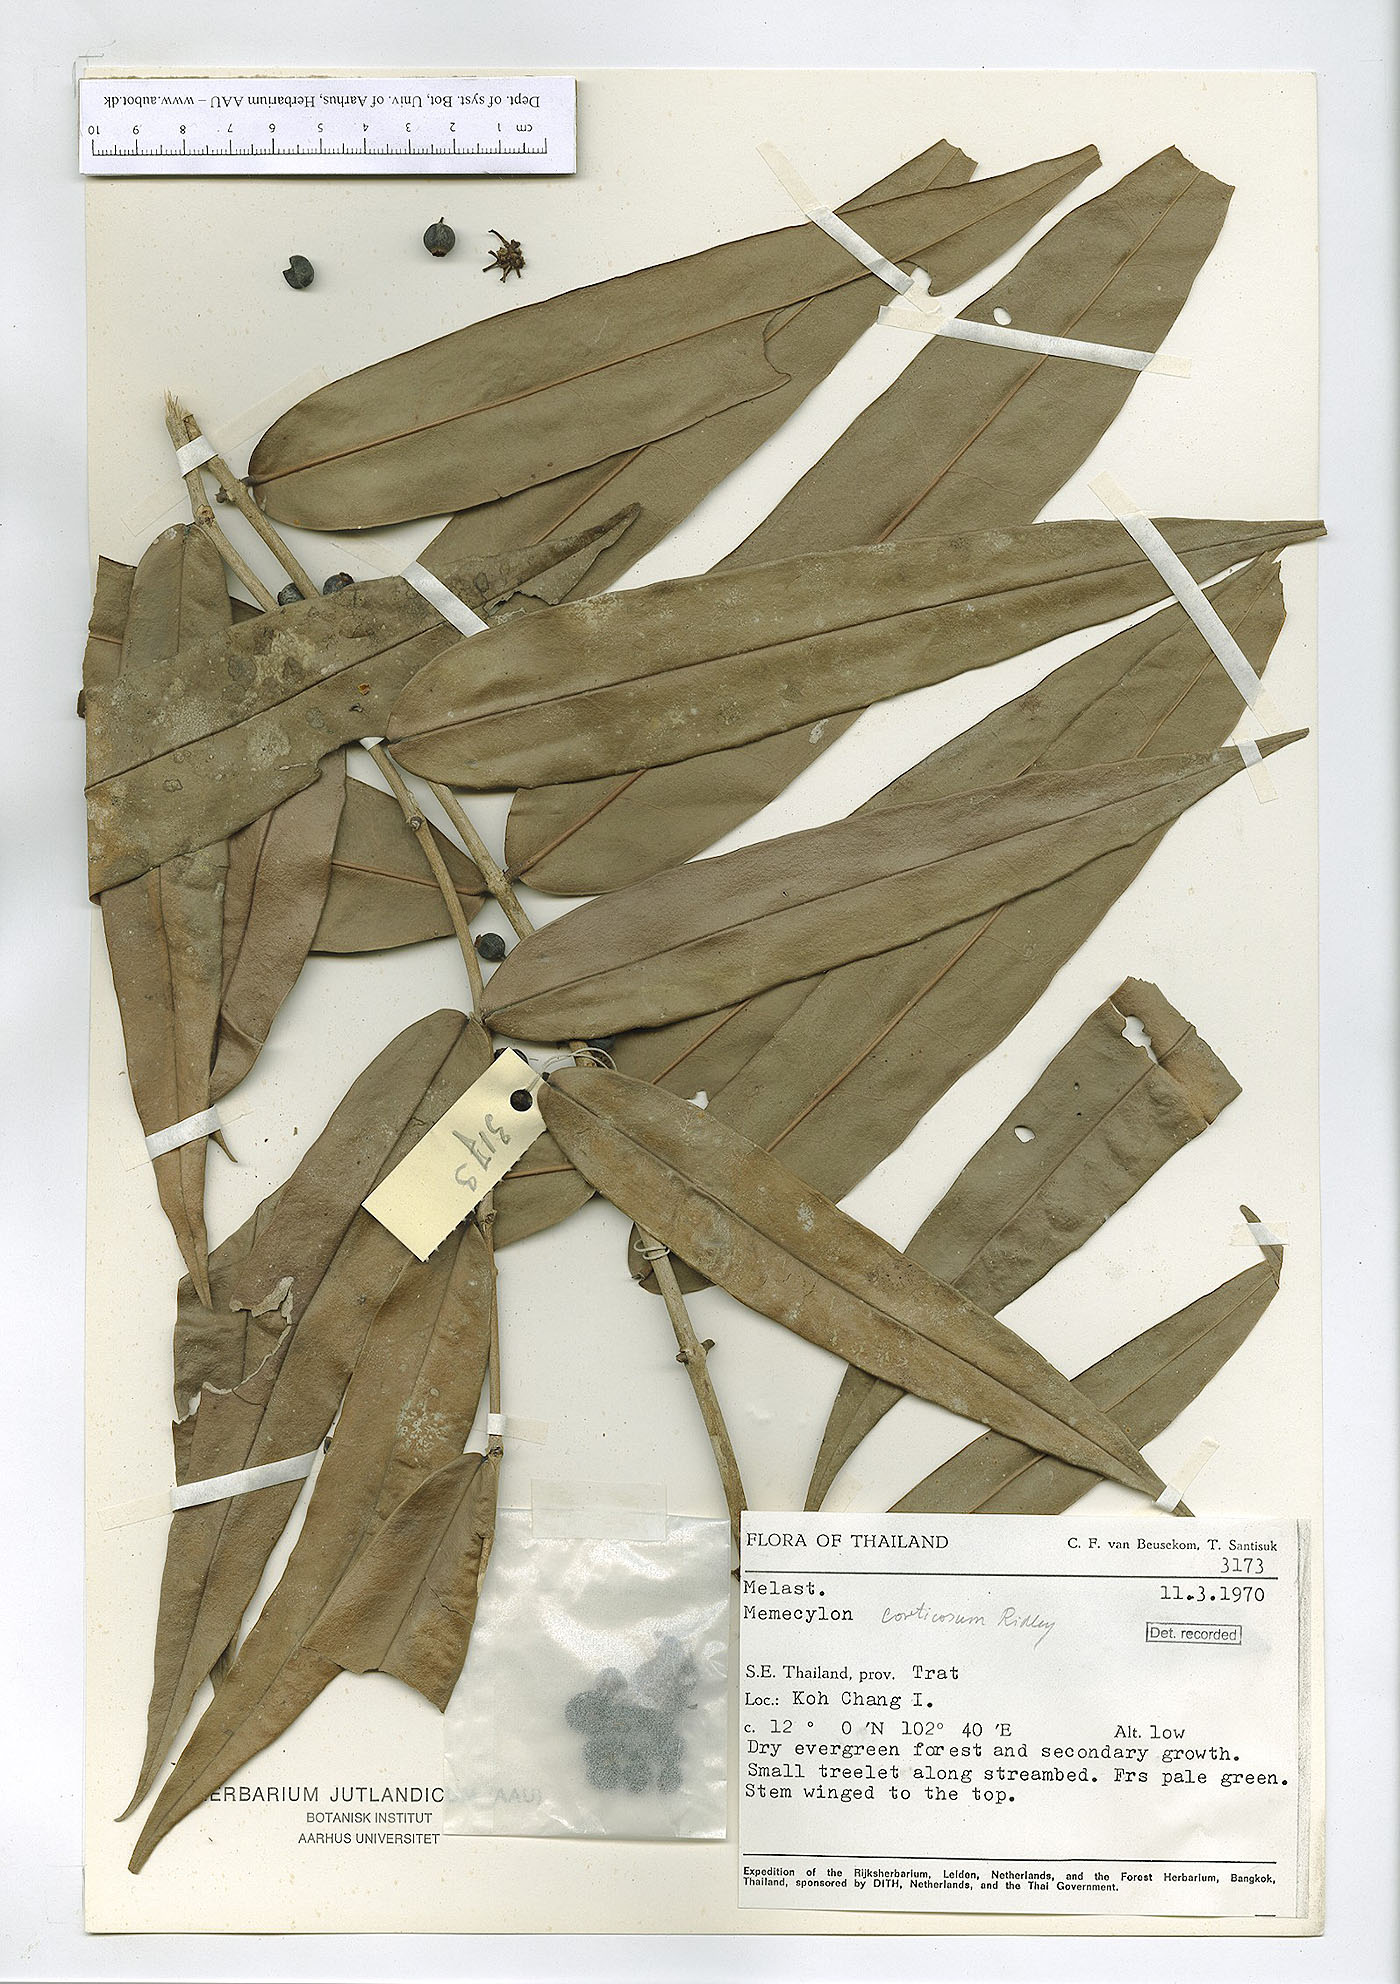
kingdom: Plantae
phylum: Tracheophyta
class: Magnoliopsida
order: Myrtales
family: Melastomataceae
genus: Memecylon
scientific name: Memecylon corticosum
